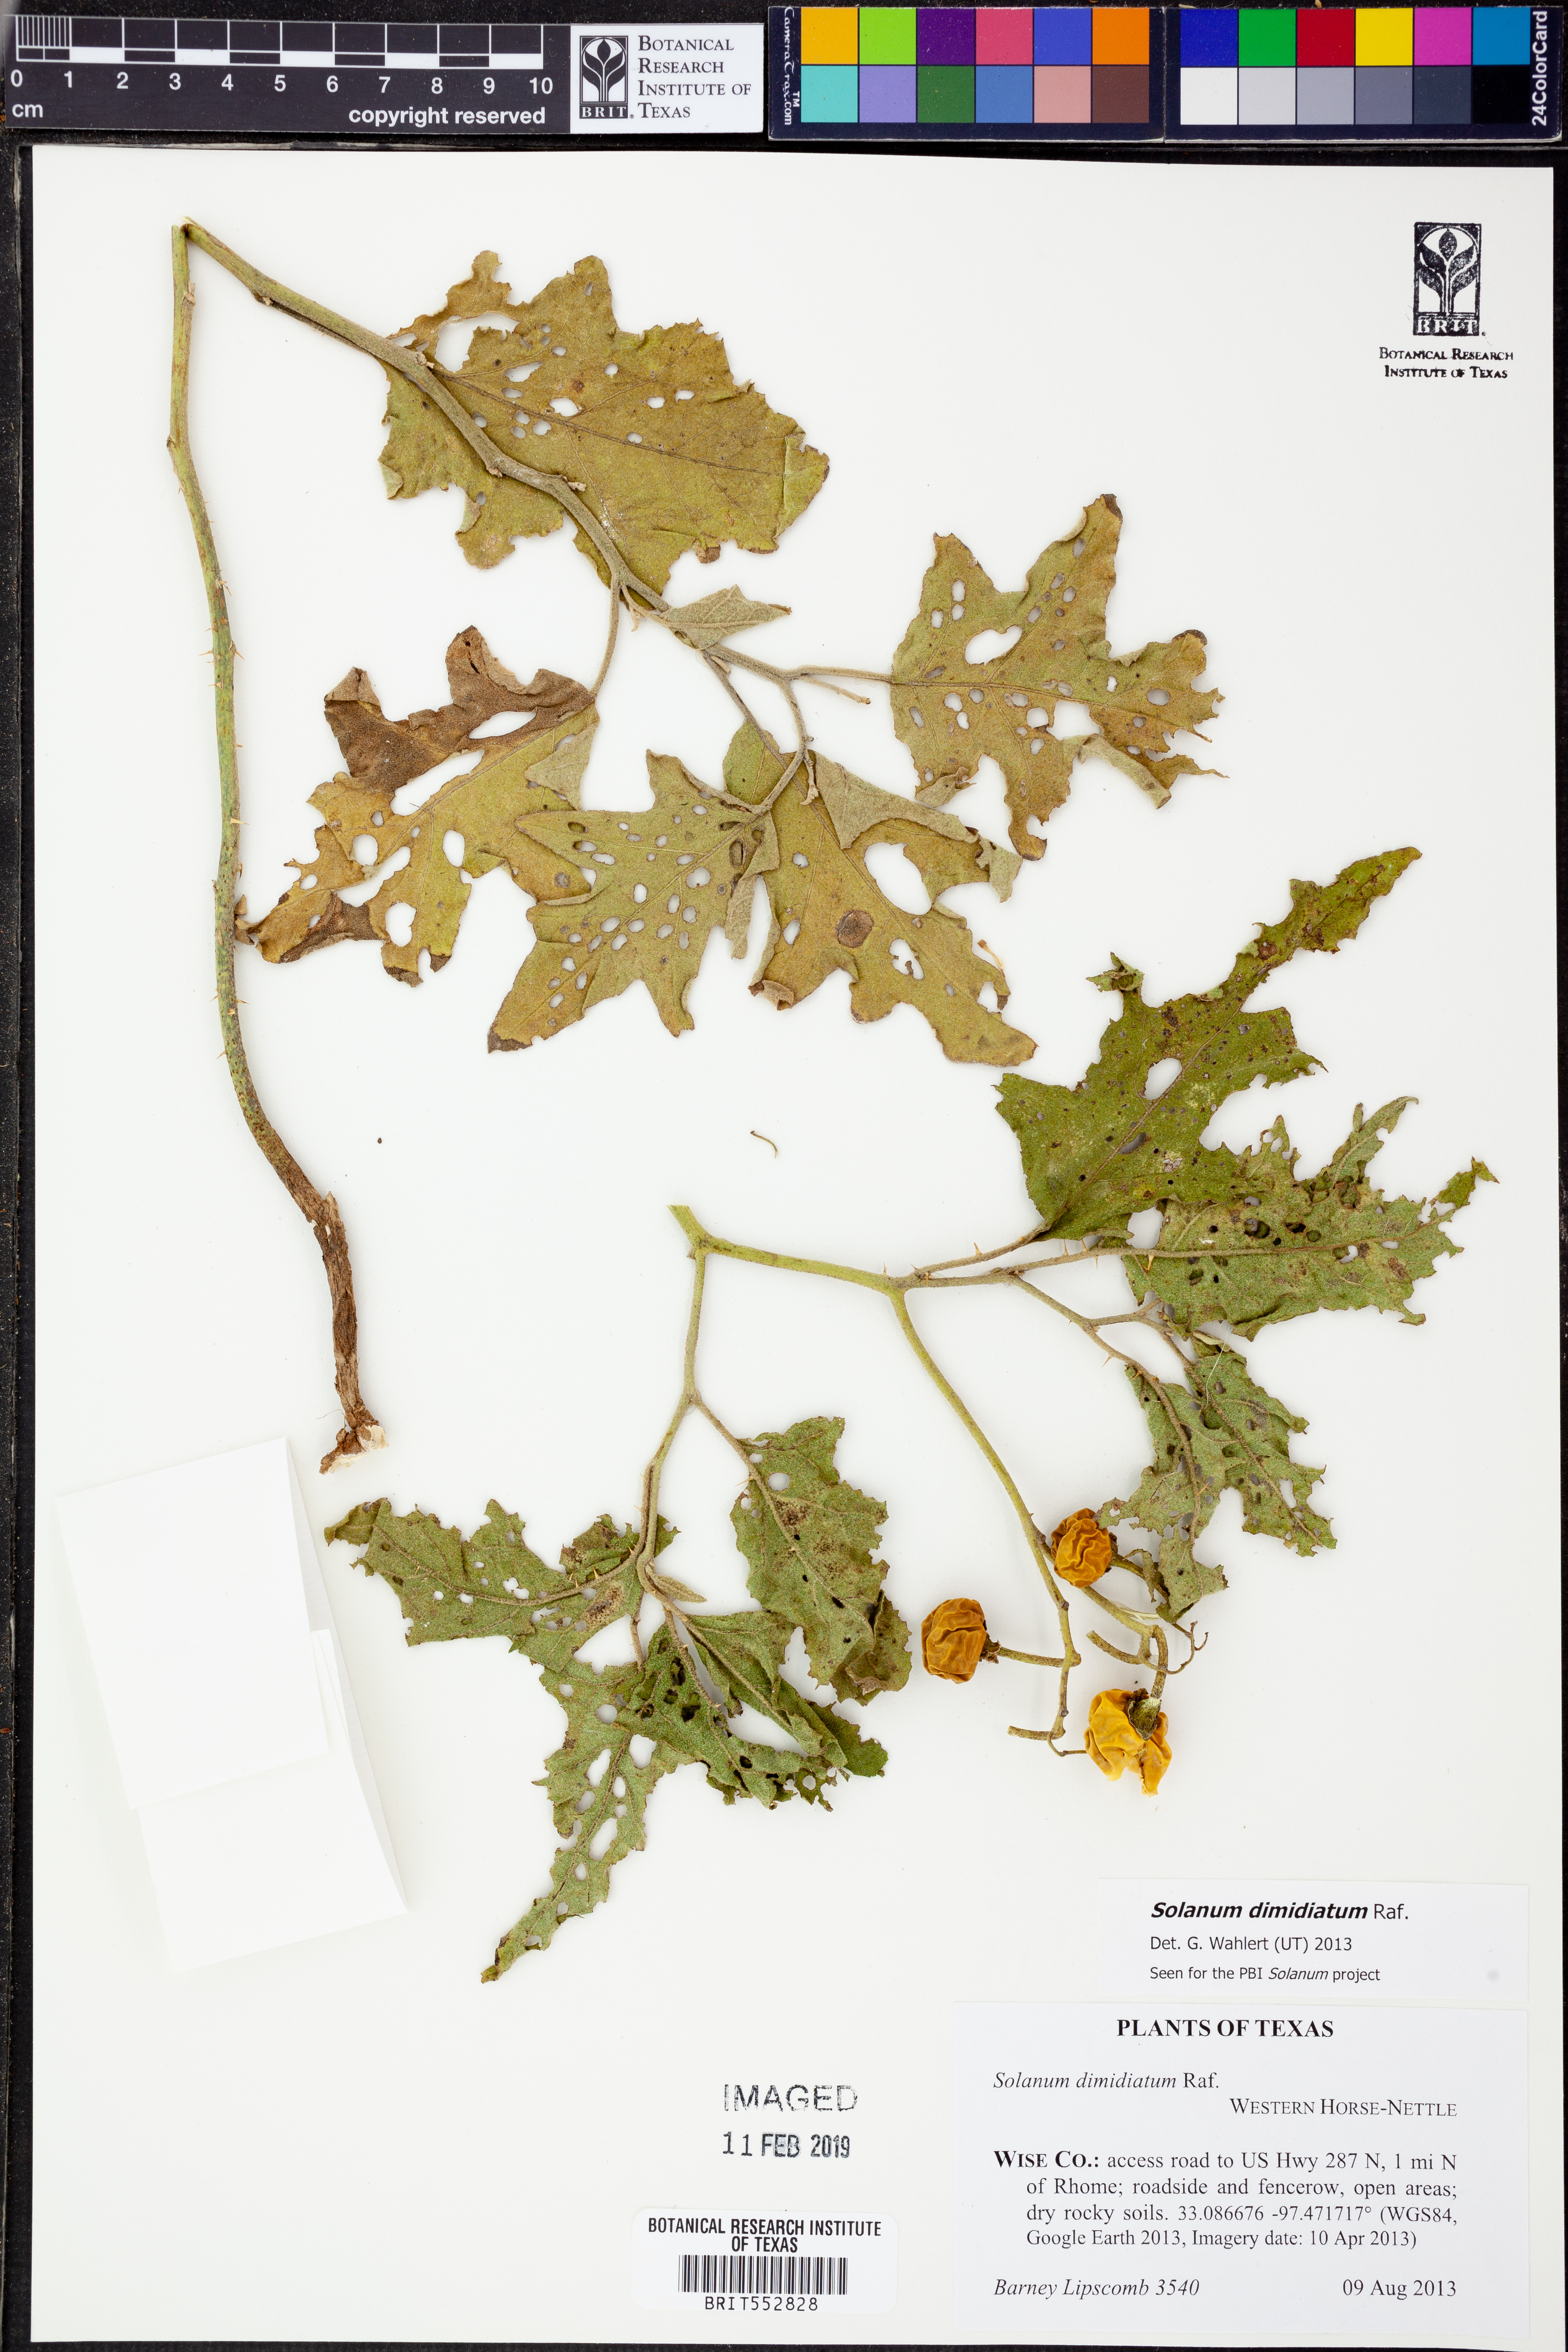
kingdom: Plantae
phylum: Tracheophyta
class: Magnoliopsida
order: Solanales
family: Solanaceae
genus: Solanum
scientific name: Solanum dimidiatum
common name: Carolina horse-nettle
